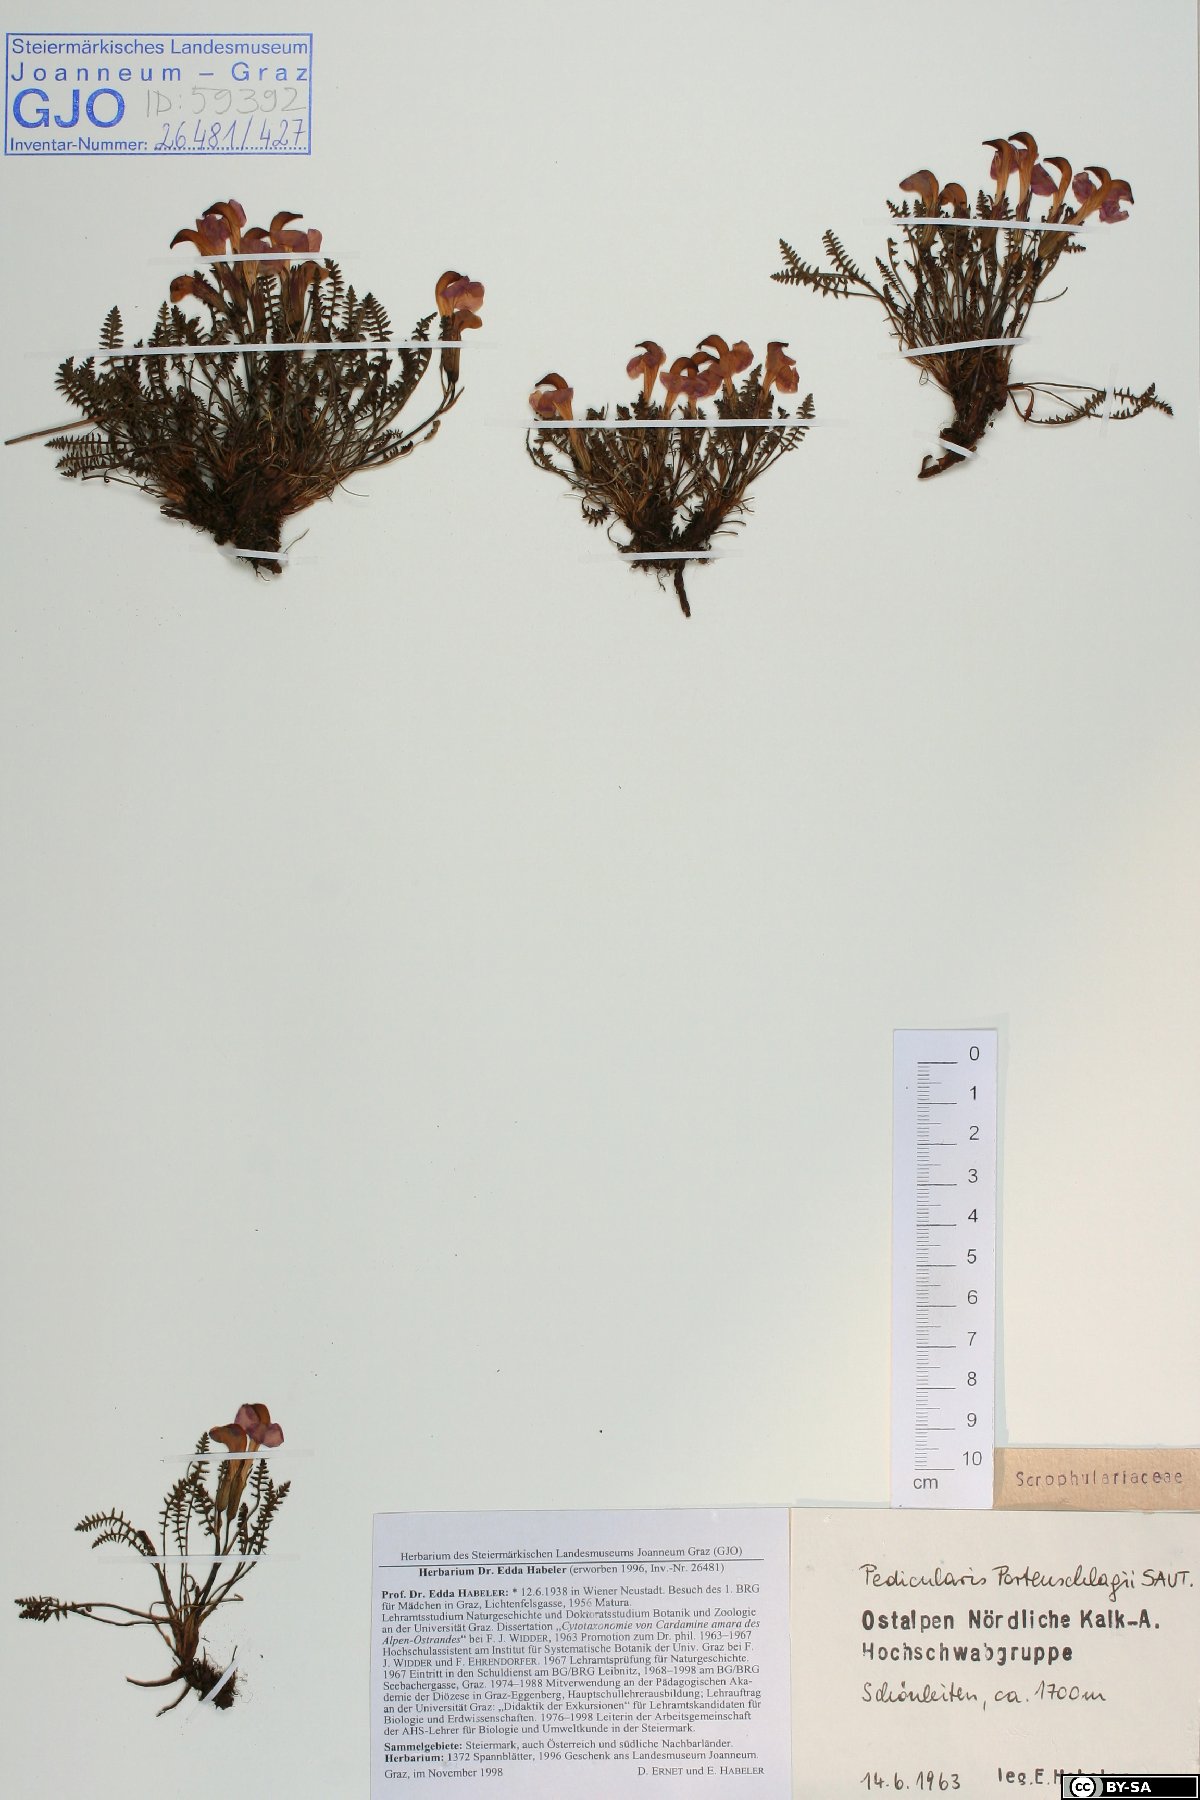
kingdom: Plantae
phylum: Tracheophyta
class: Magnoliopsida
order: Lamiales
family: Orobanchaceae
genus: Pedicularis
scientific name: Pedicularis portenschlagii
